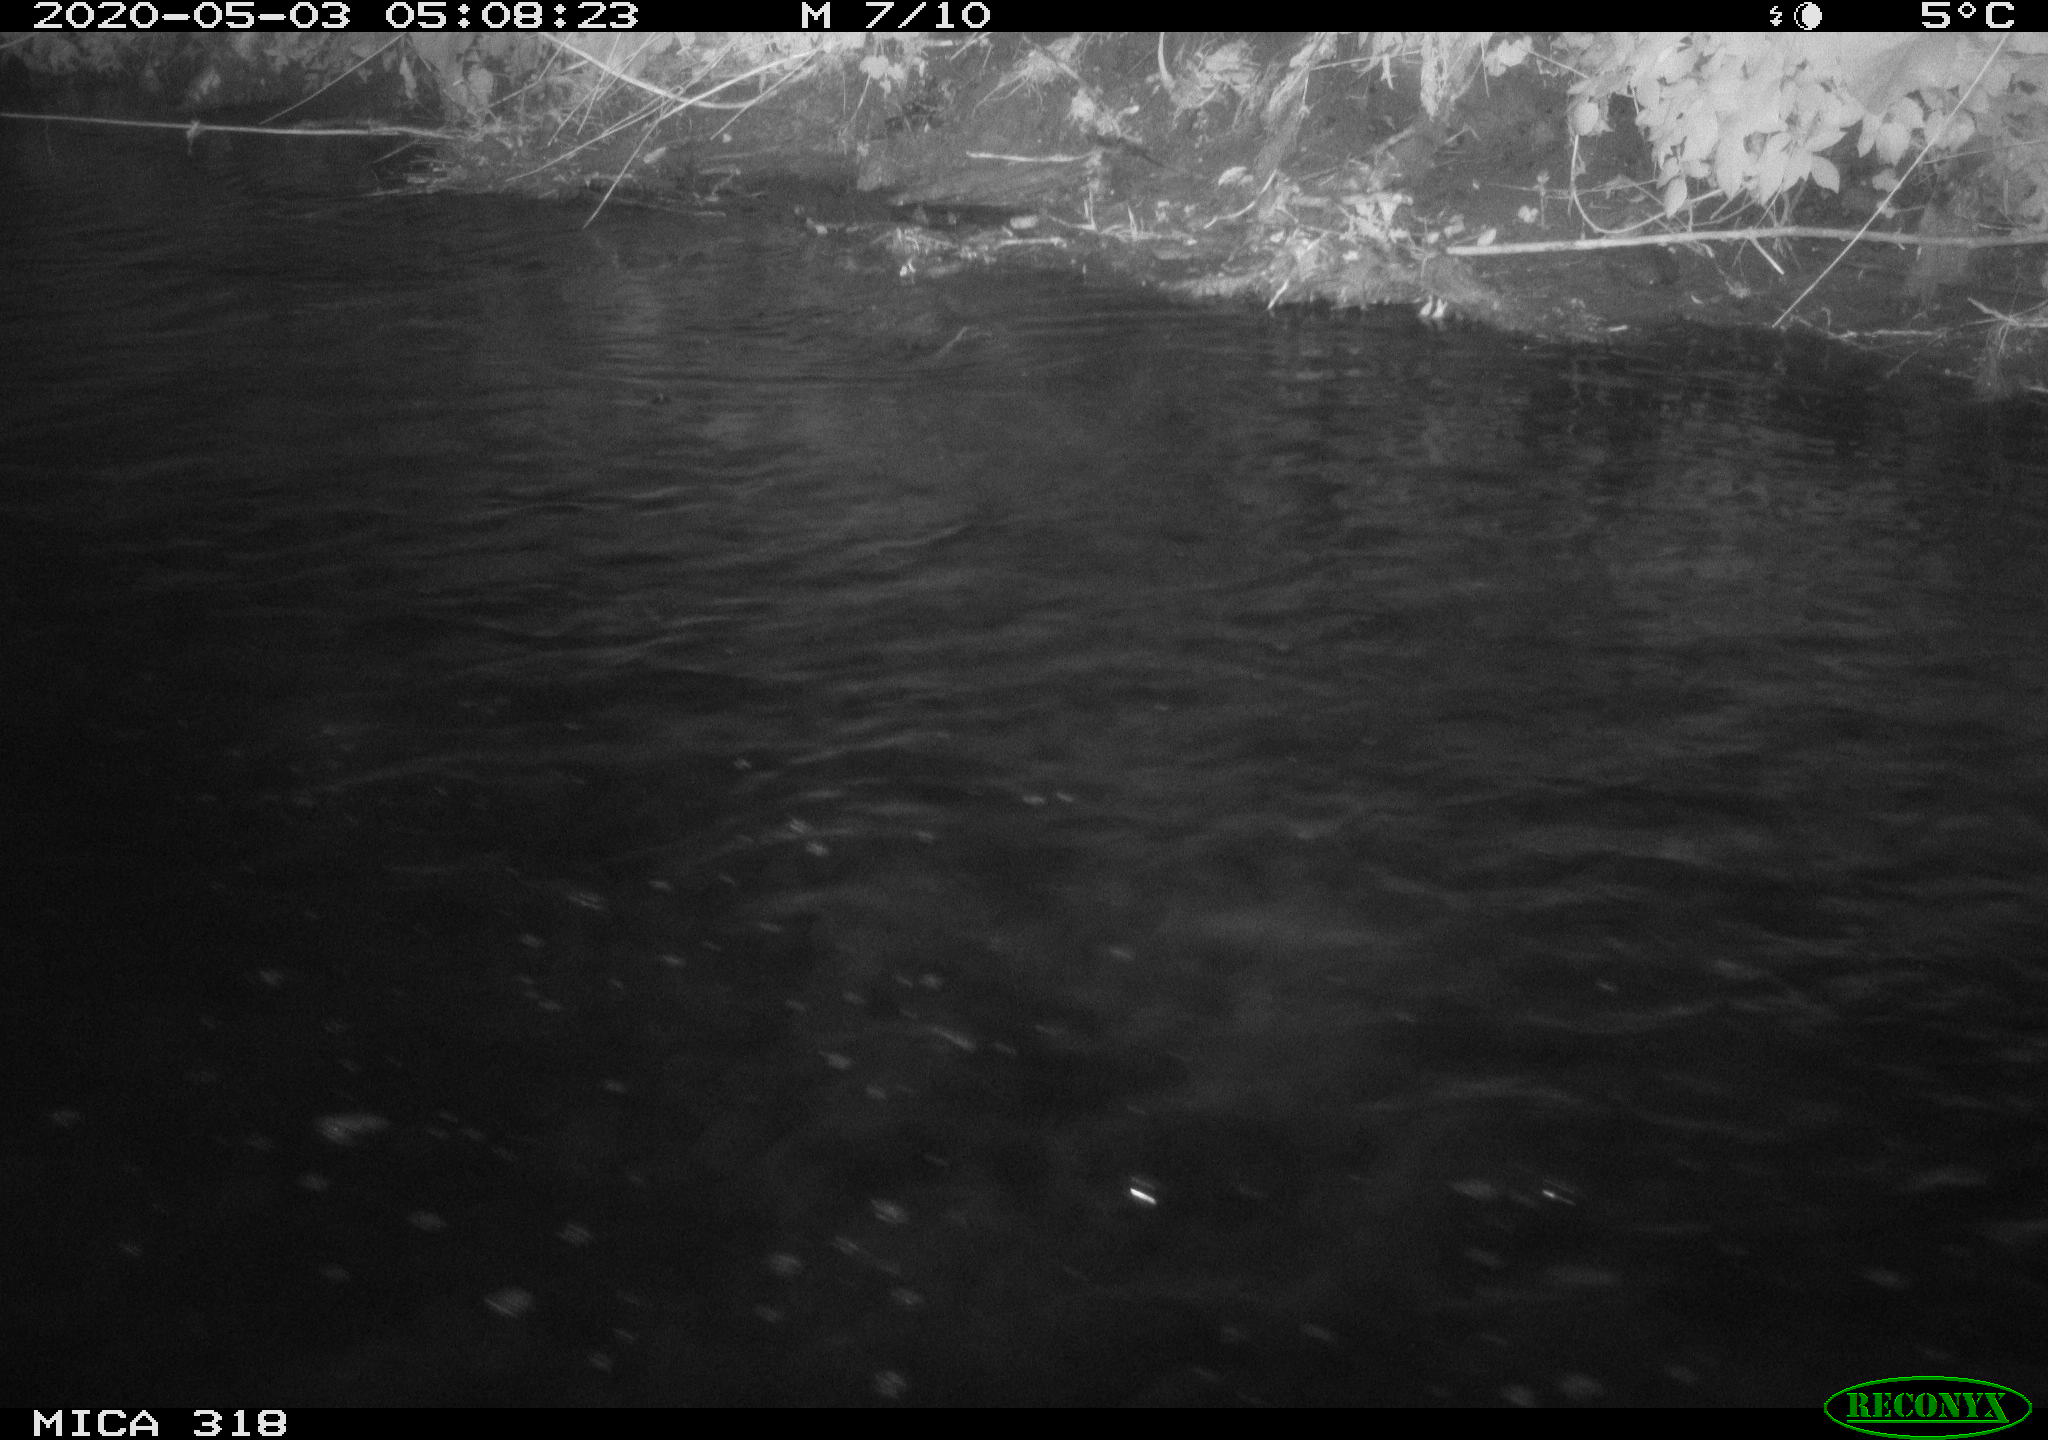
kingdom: Animalia
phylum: Chordata
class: Aves
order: Anseriformes
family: Anatidae
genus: Anas
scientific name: Anas platyrhynchos
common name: Mallard
